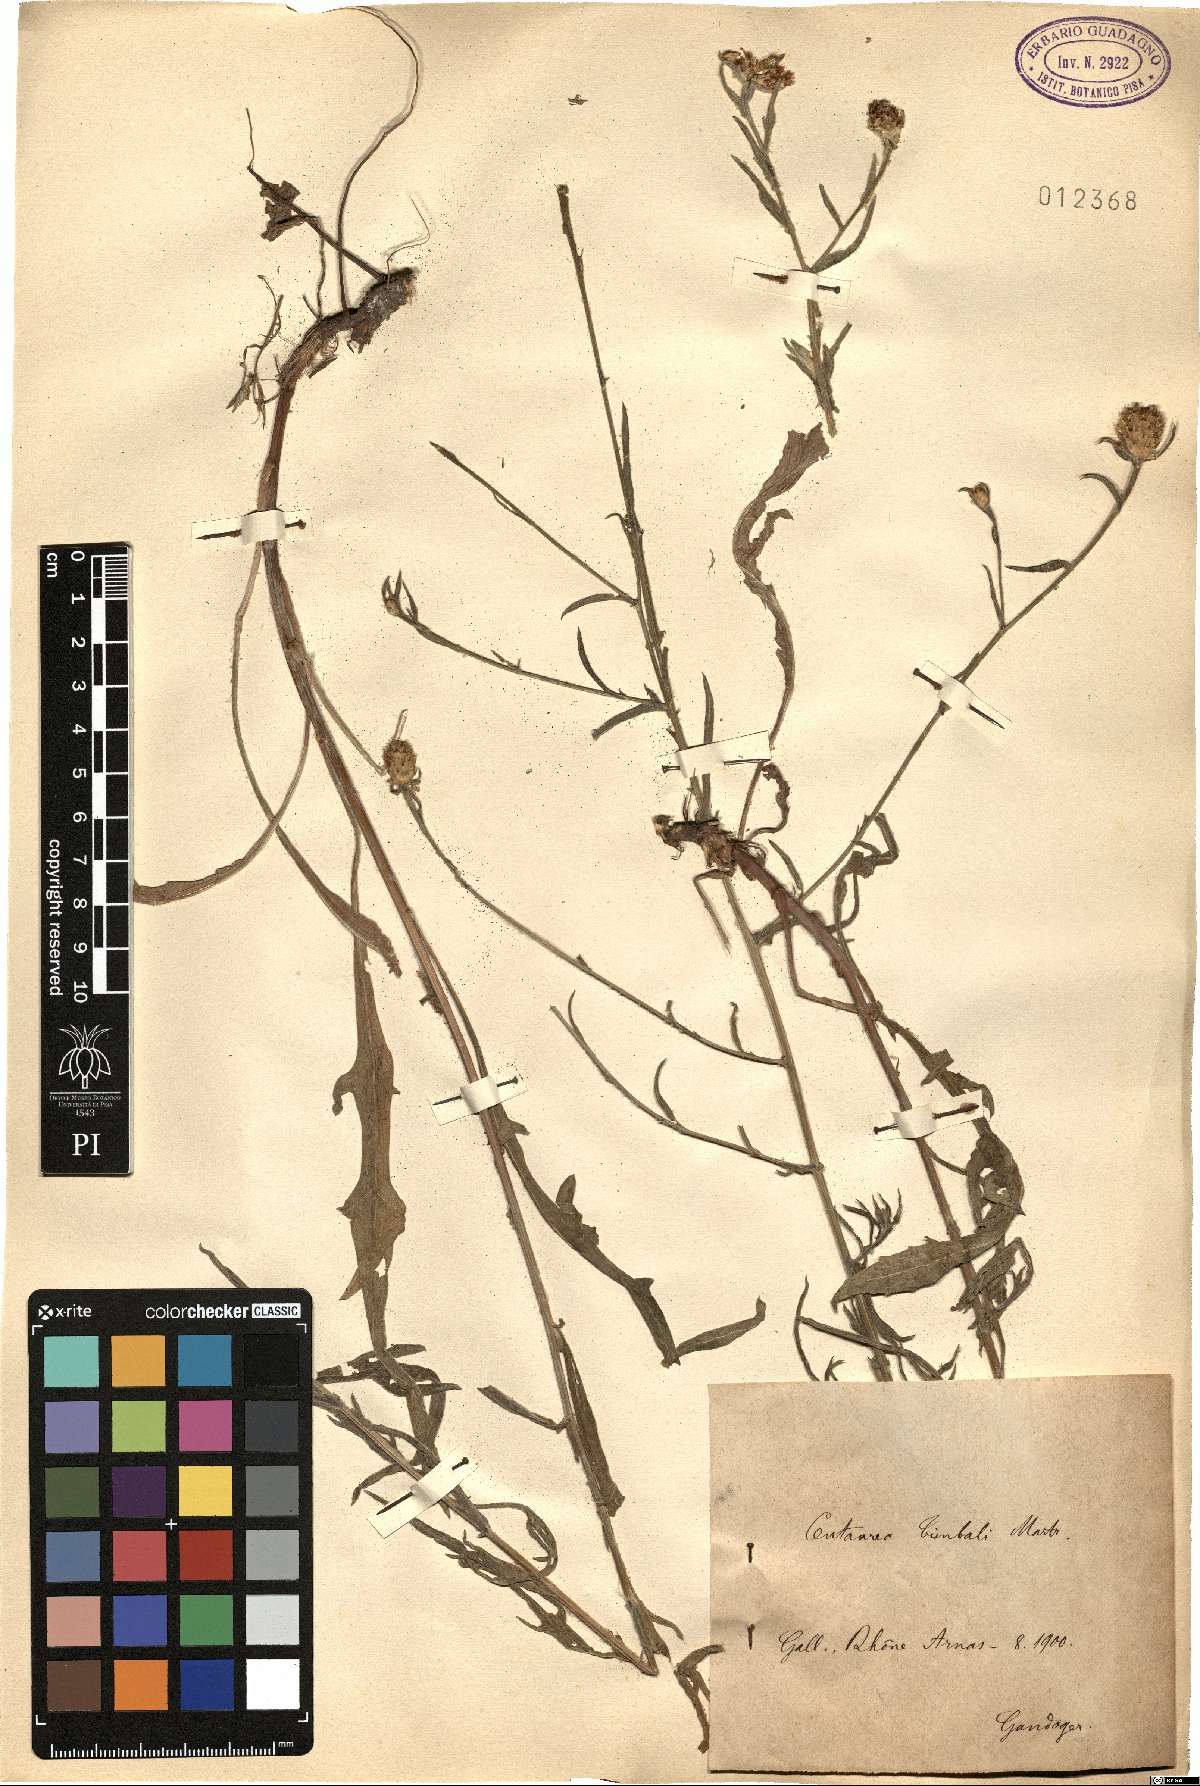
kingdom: Plantae
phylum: Tracheophyta
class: Magnoliopsida
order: Asterales
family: Asteraceae
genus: Centaurea
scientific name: Centaurea timbalii
